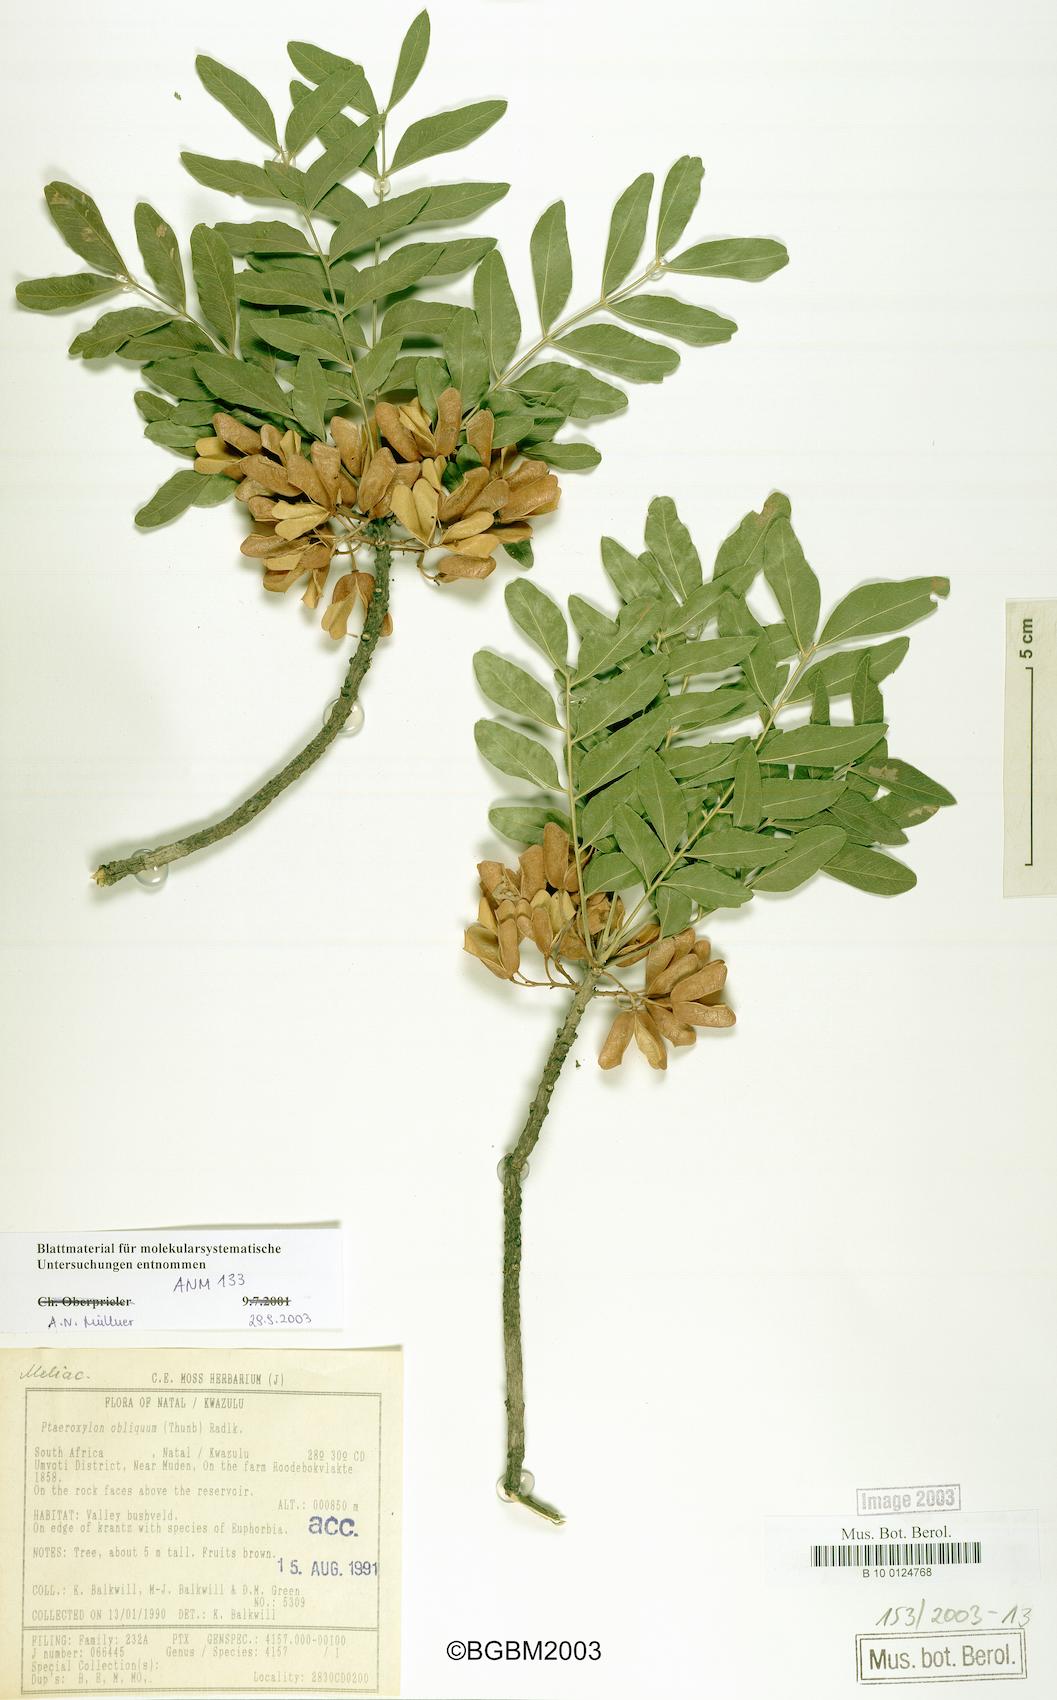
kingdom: Plantae
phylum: Tracheophyta
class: Magnoliopsida
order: Sapindales
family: Rutaceae
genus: Ptaeroxylon
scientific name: Ptaeroxylon obliquum
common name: Sneezewood
